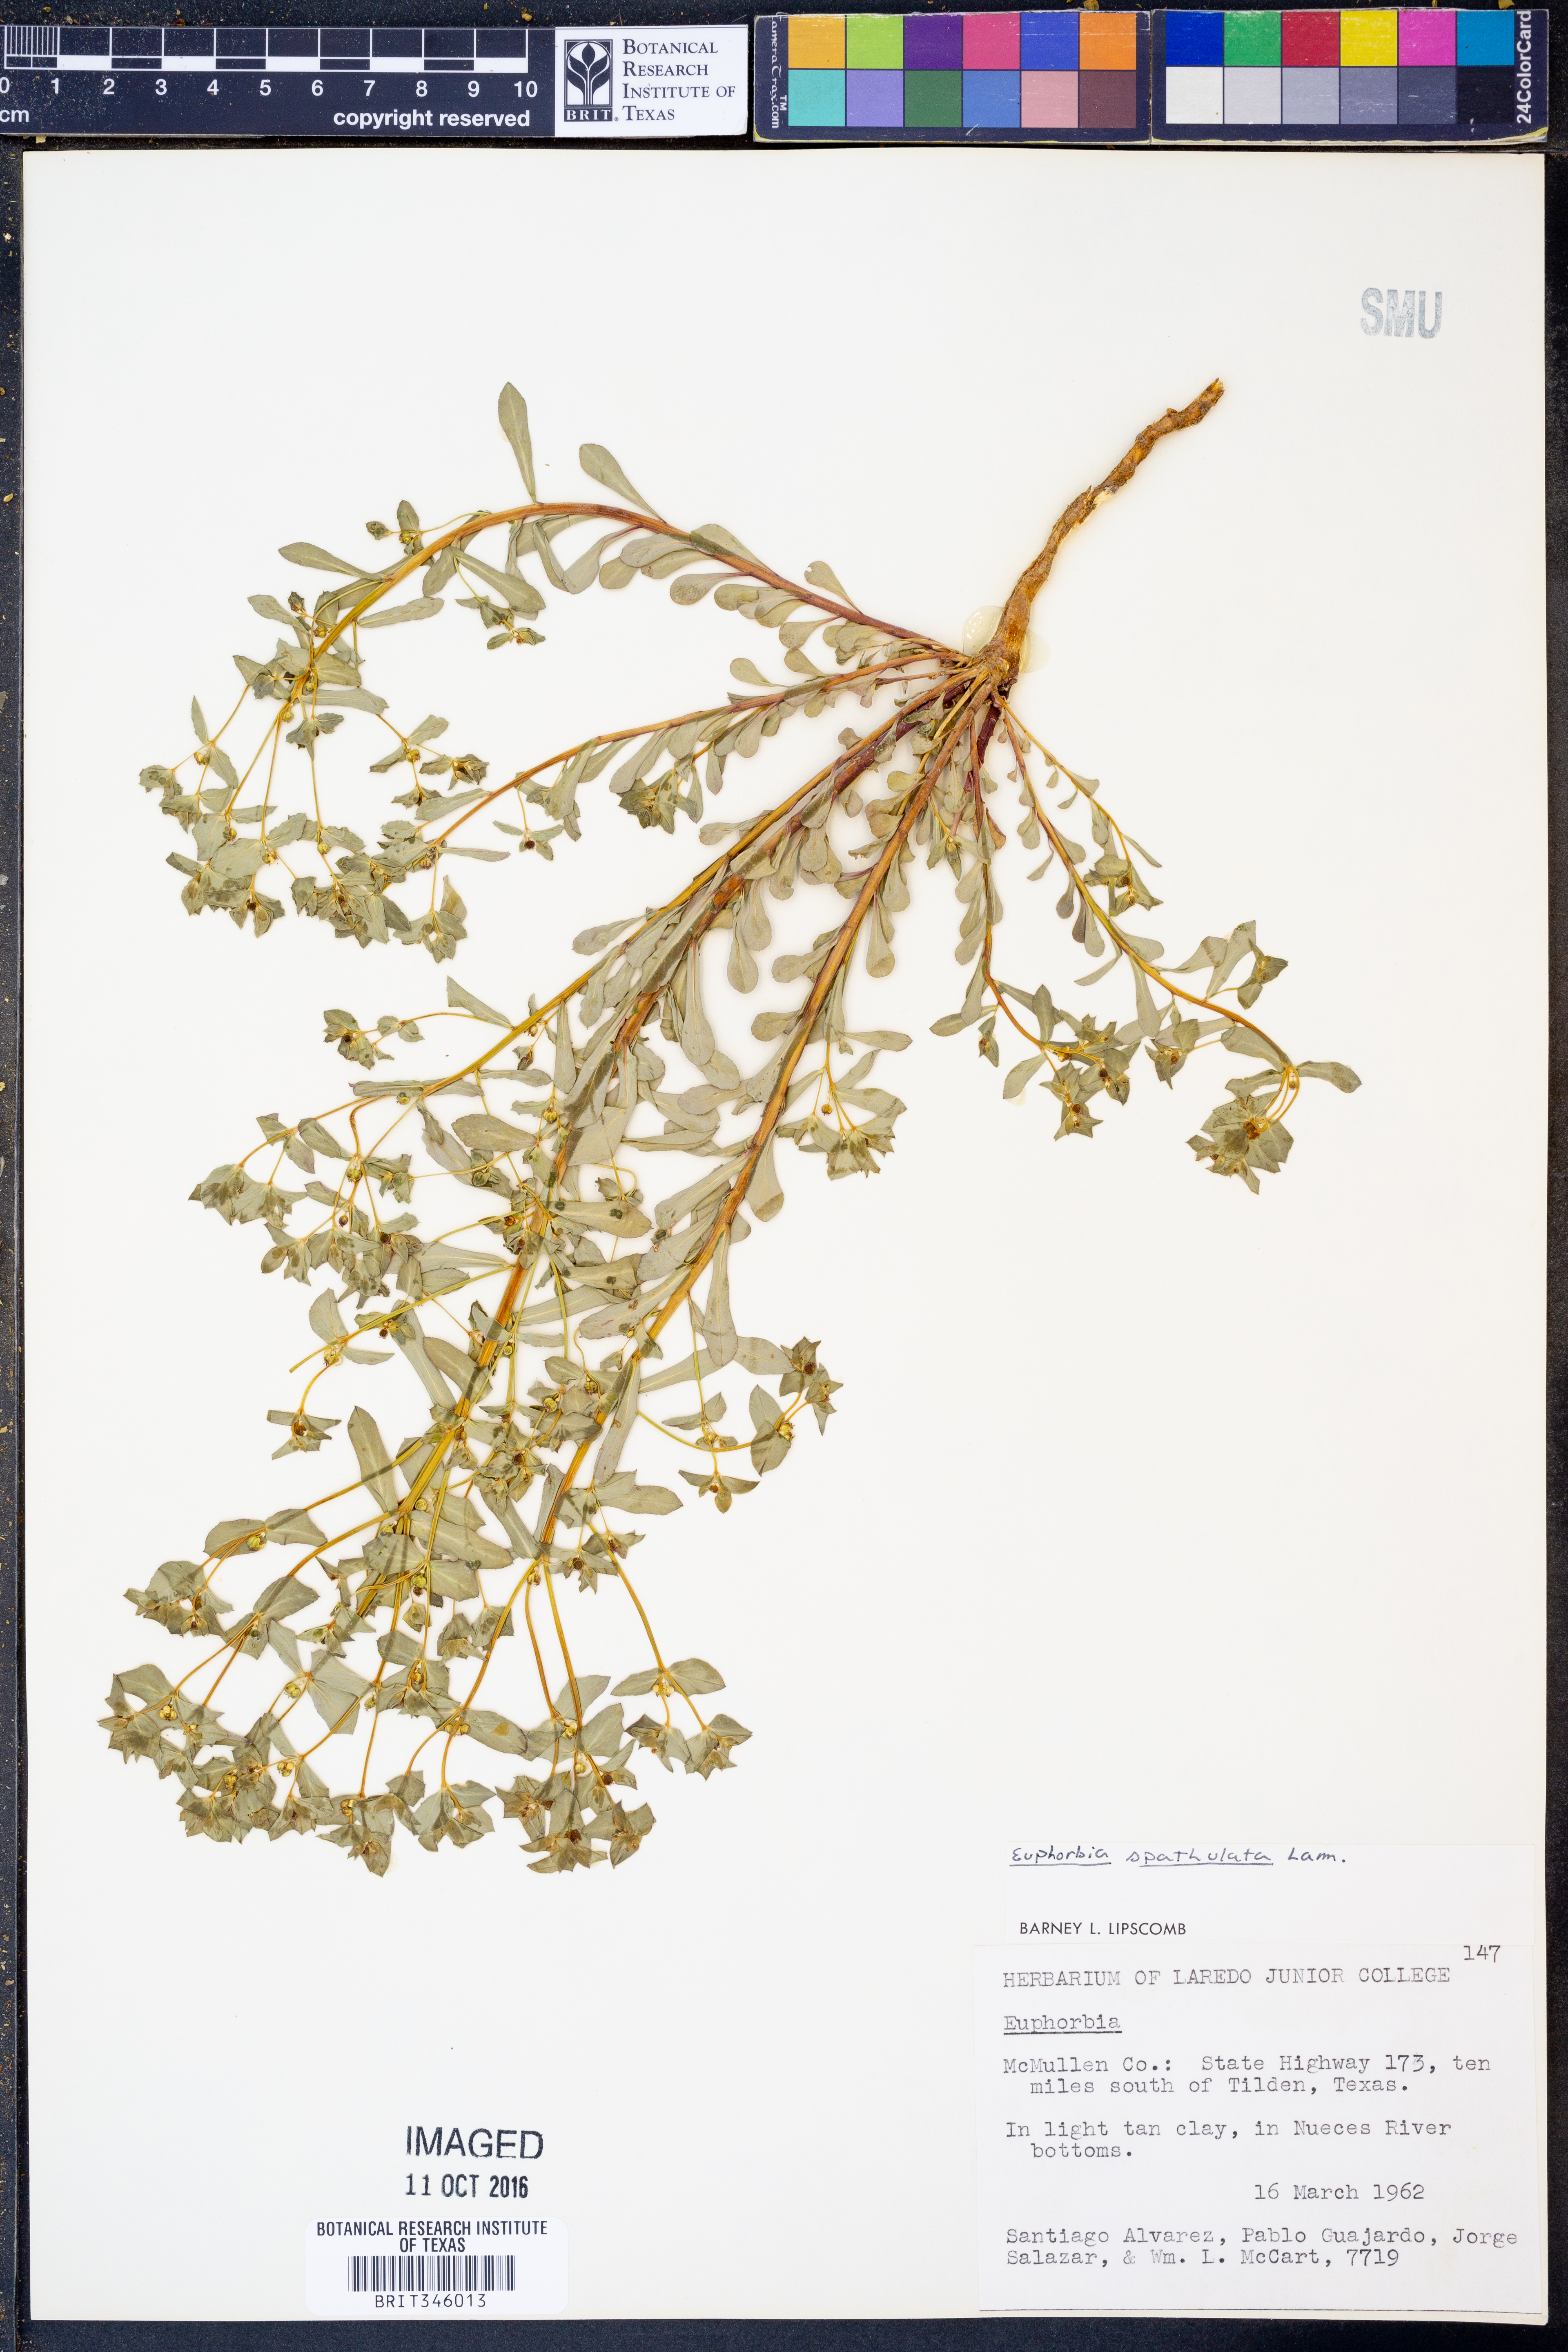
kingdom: Plantae
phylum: Tracheophyta
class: Magnoliopsida
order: Malpighiales
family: Euphorbiaceae
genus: Euphorbia
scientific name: Euphorbia spathulata
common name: Blunt spurge
